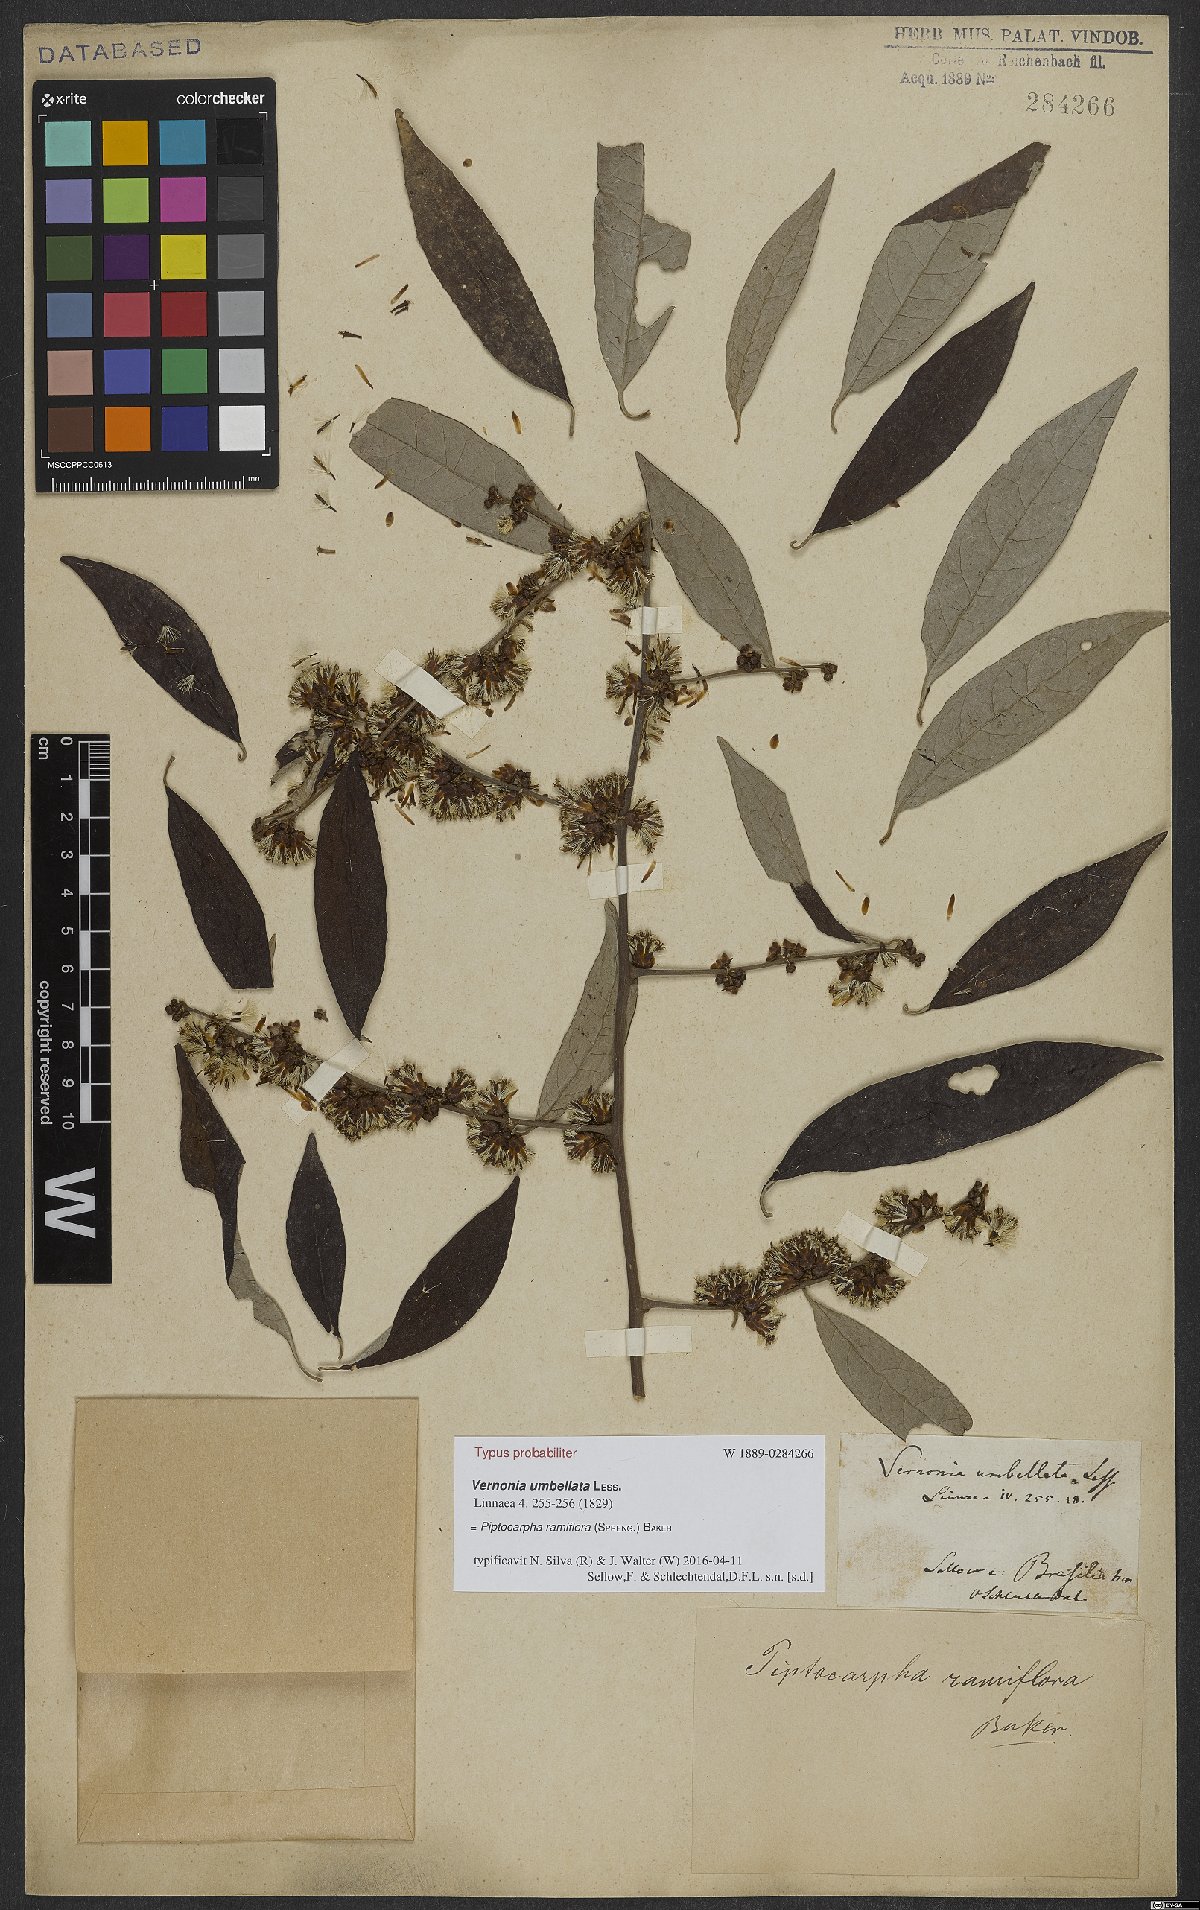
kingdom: Plantae
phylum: Tracheophyta
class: Magnoliopsida
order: Asterales
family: Asteraceae
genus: Piptocarpha
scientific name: Piptocarpha ramiflora
